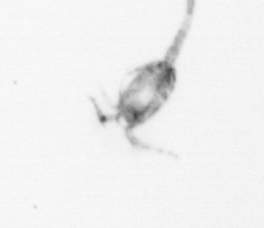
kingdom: Animalia
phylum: Arthropoda
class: Copepoda
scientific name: Copepoda
